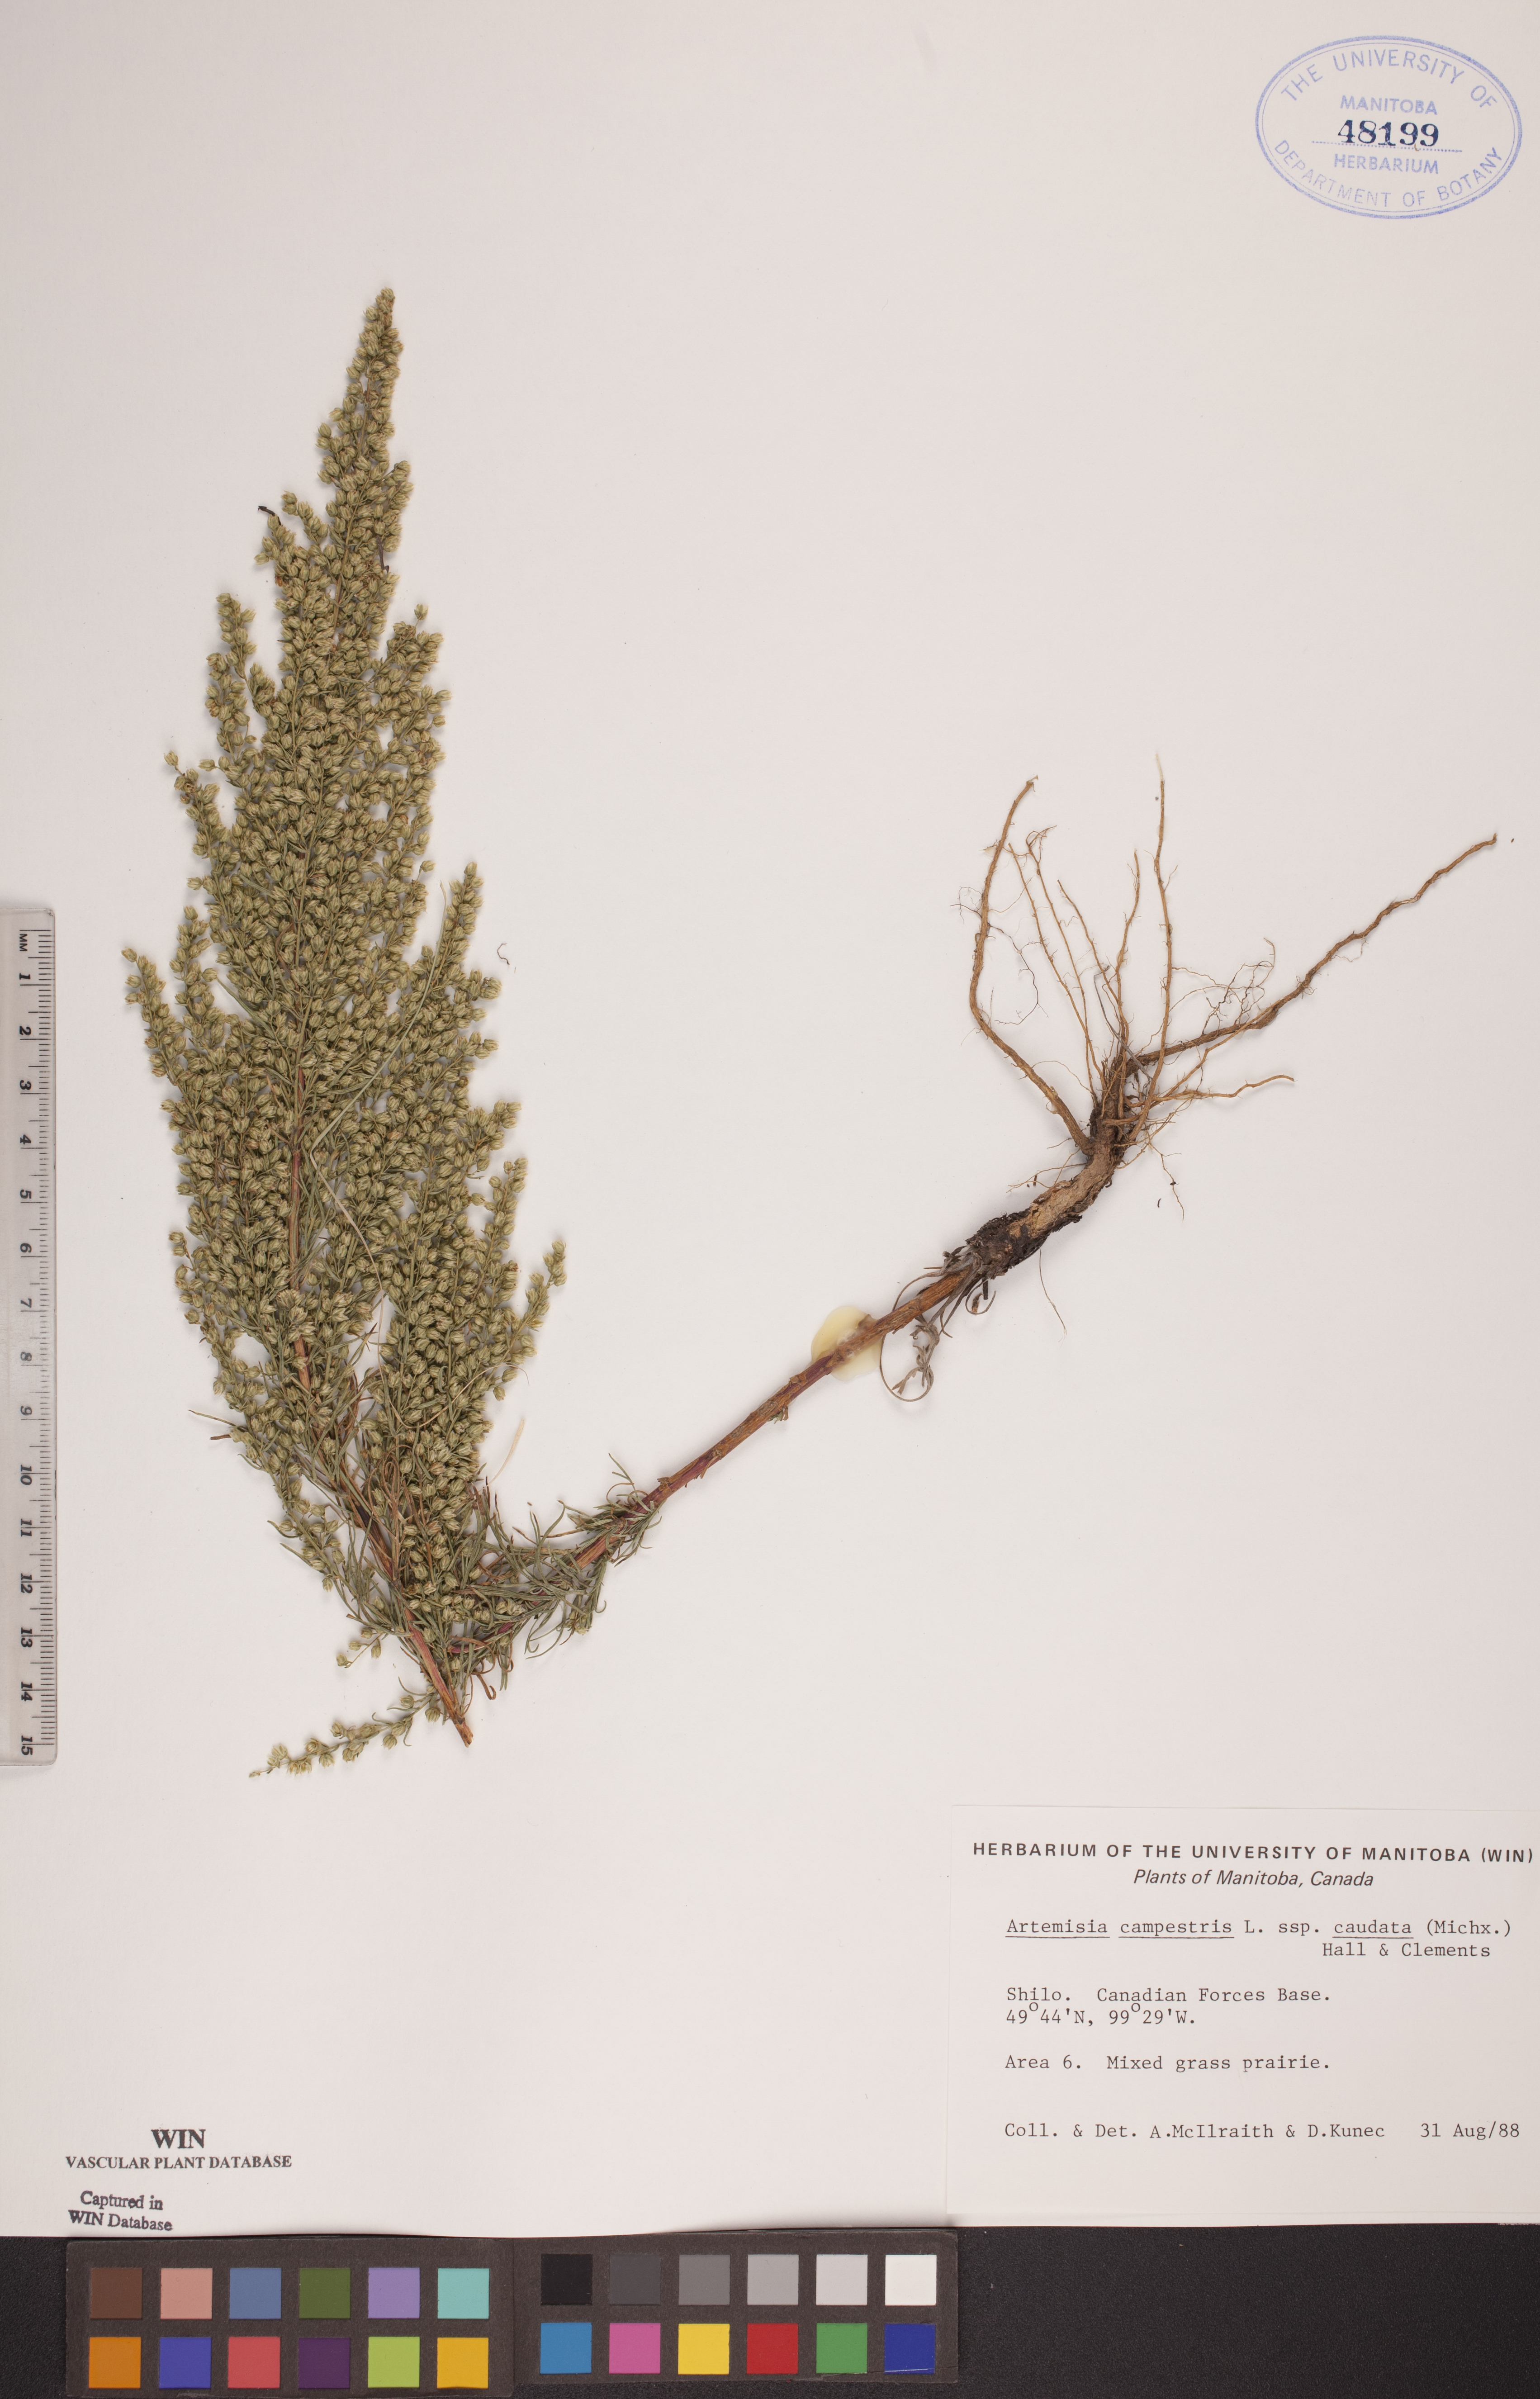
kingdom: Plantae
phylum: Tracheophyta
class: Magnoliopsida
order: Asterales
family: Asteraceae
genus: Artemisia
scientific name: Artemisia campestris
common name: Field wormwood
